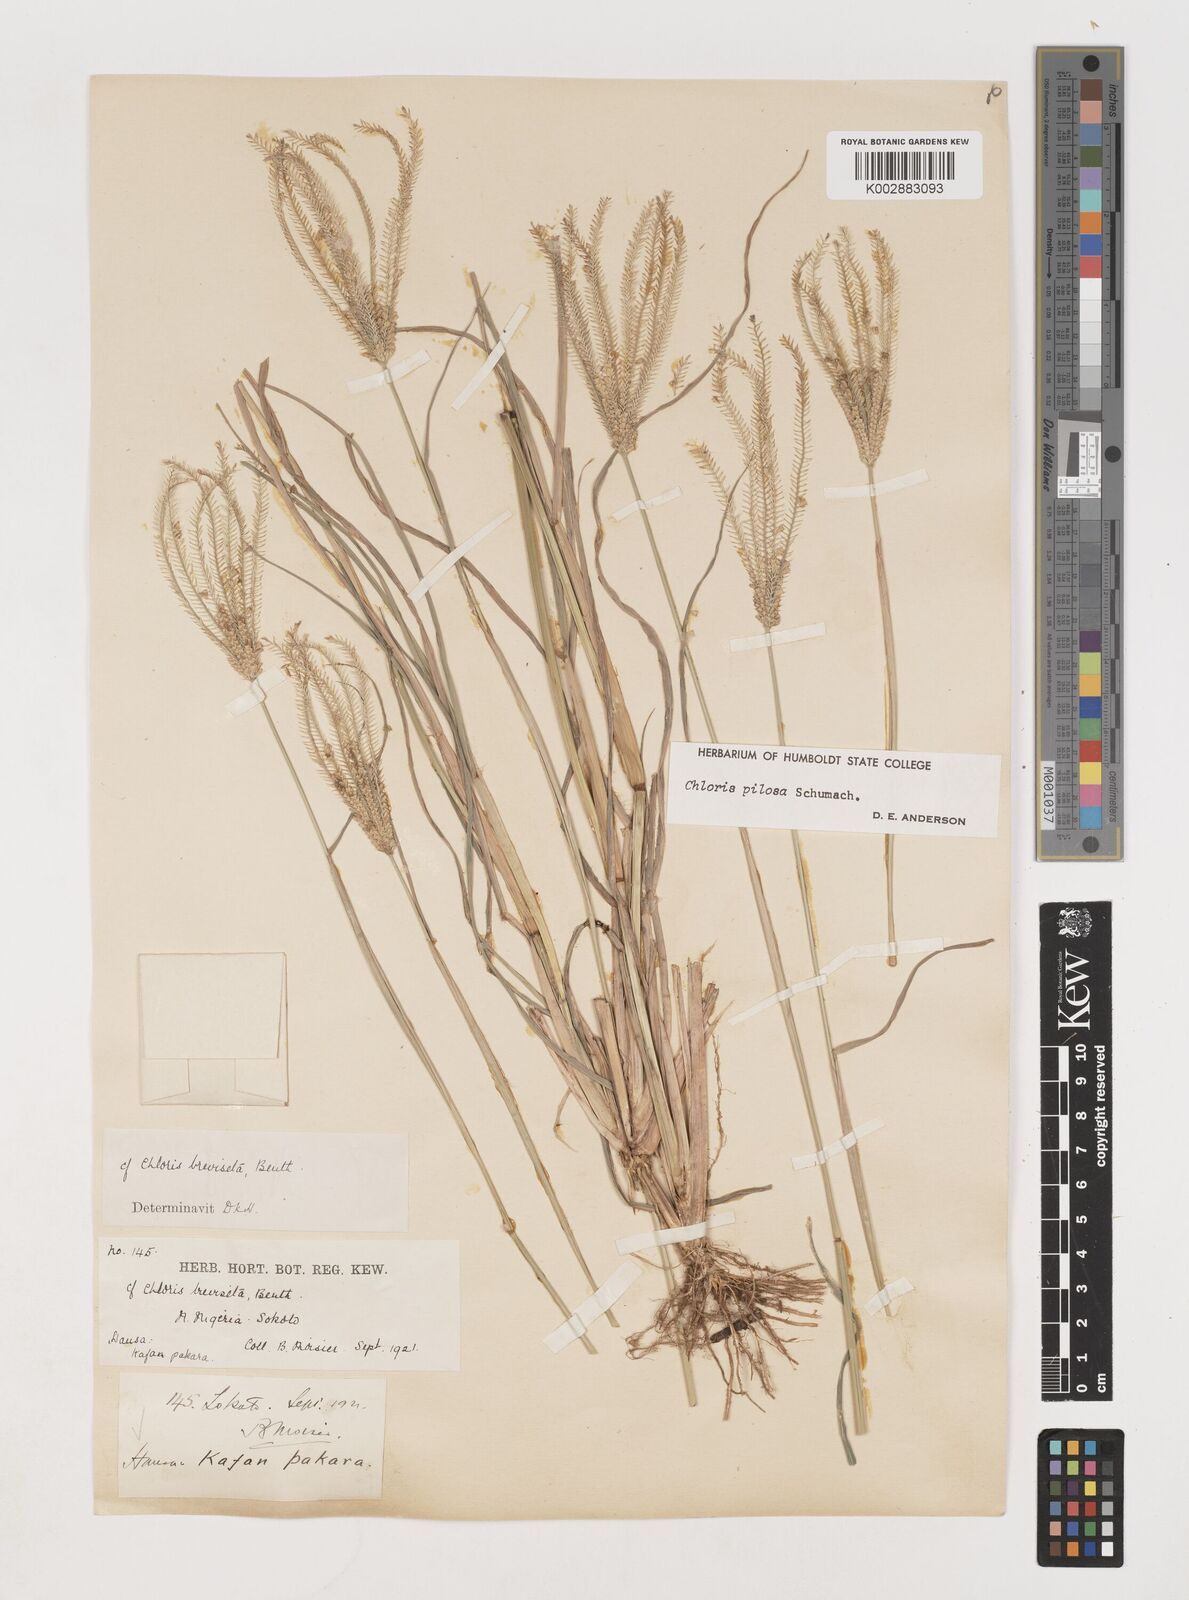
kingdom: Plantae
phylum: Tracheophyta
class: Liliopsida
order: Poales
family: Poaceae
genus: Chloris
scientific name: Chloris pilosa
